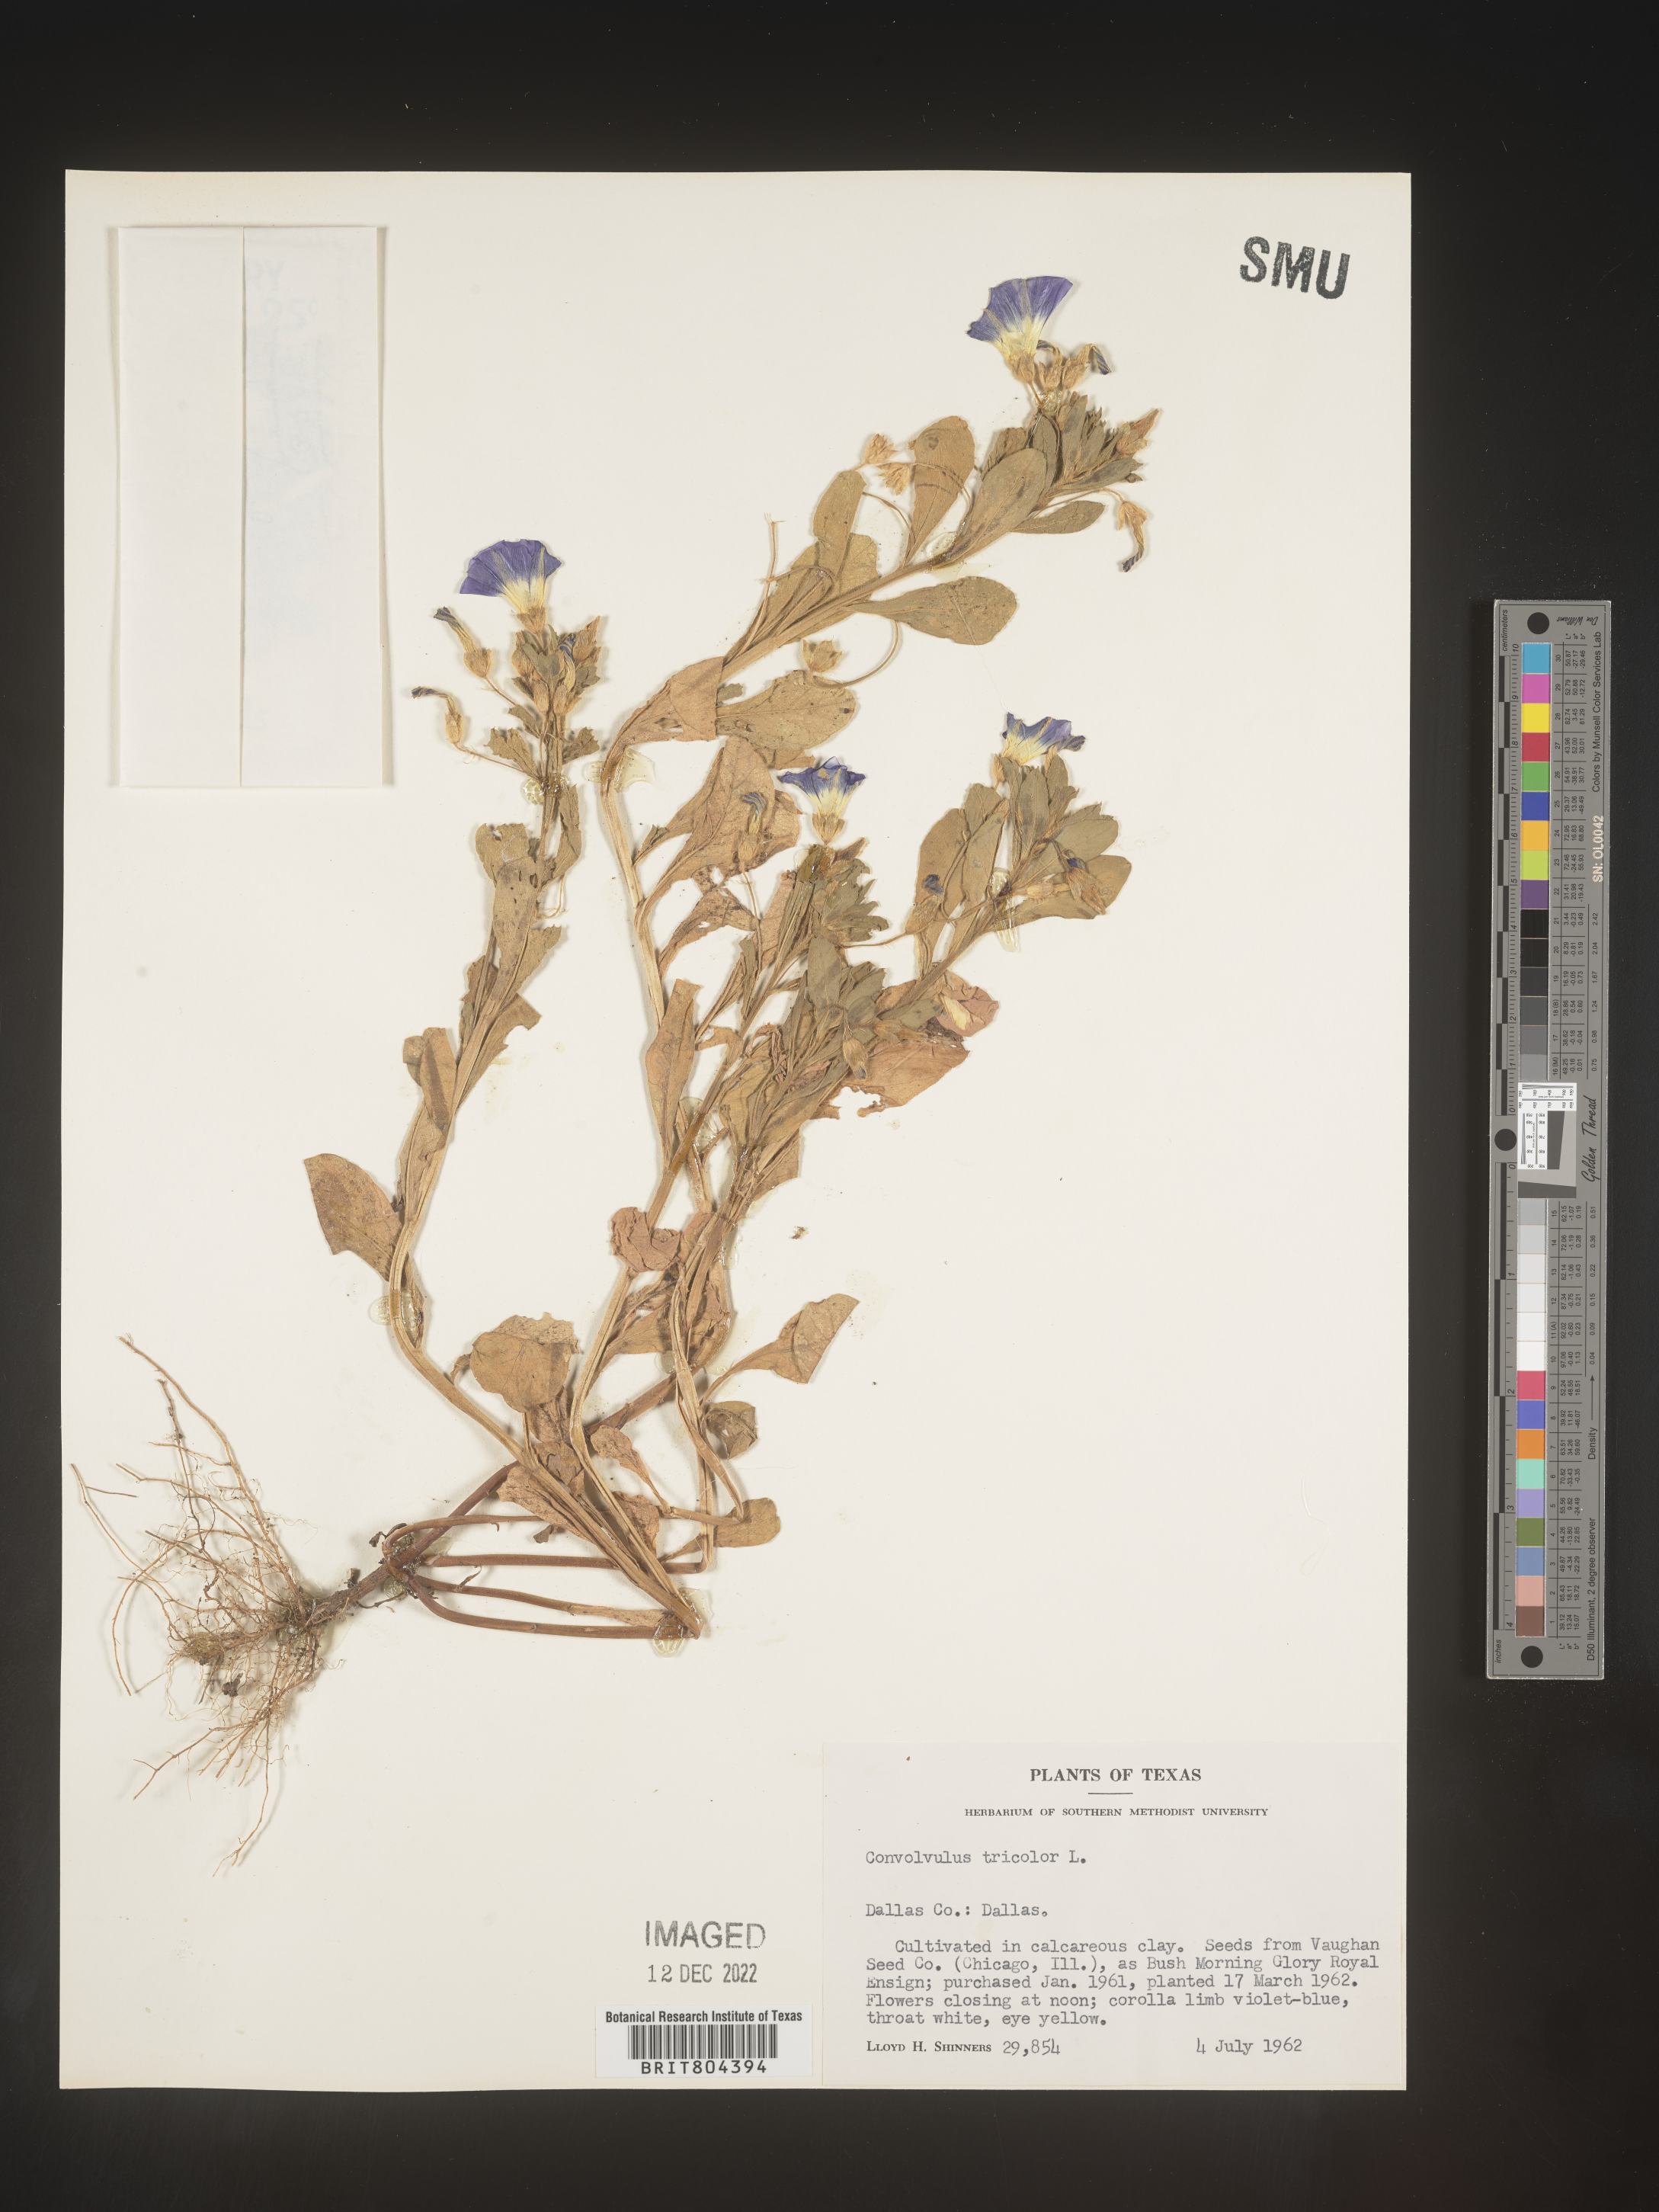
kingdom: Plantae
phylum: Tracheophyta
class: Magnoliopsida
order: Solanales
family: Convolvulaceae
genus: Convolvulus
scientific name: Convolvulus
